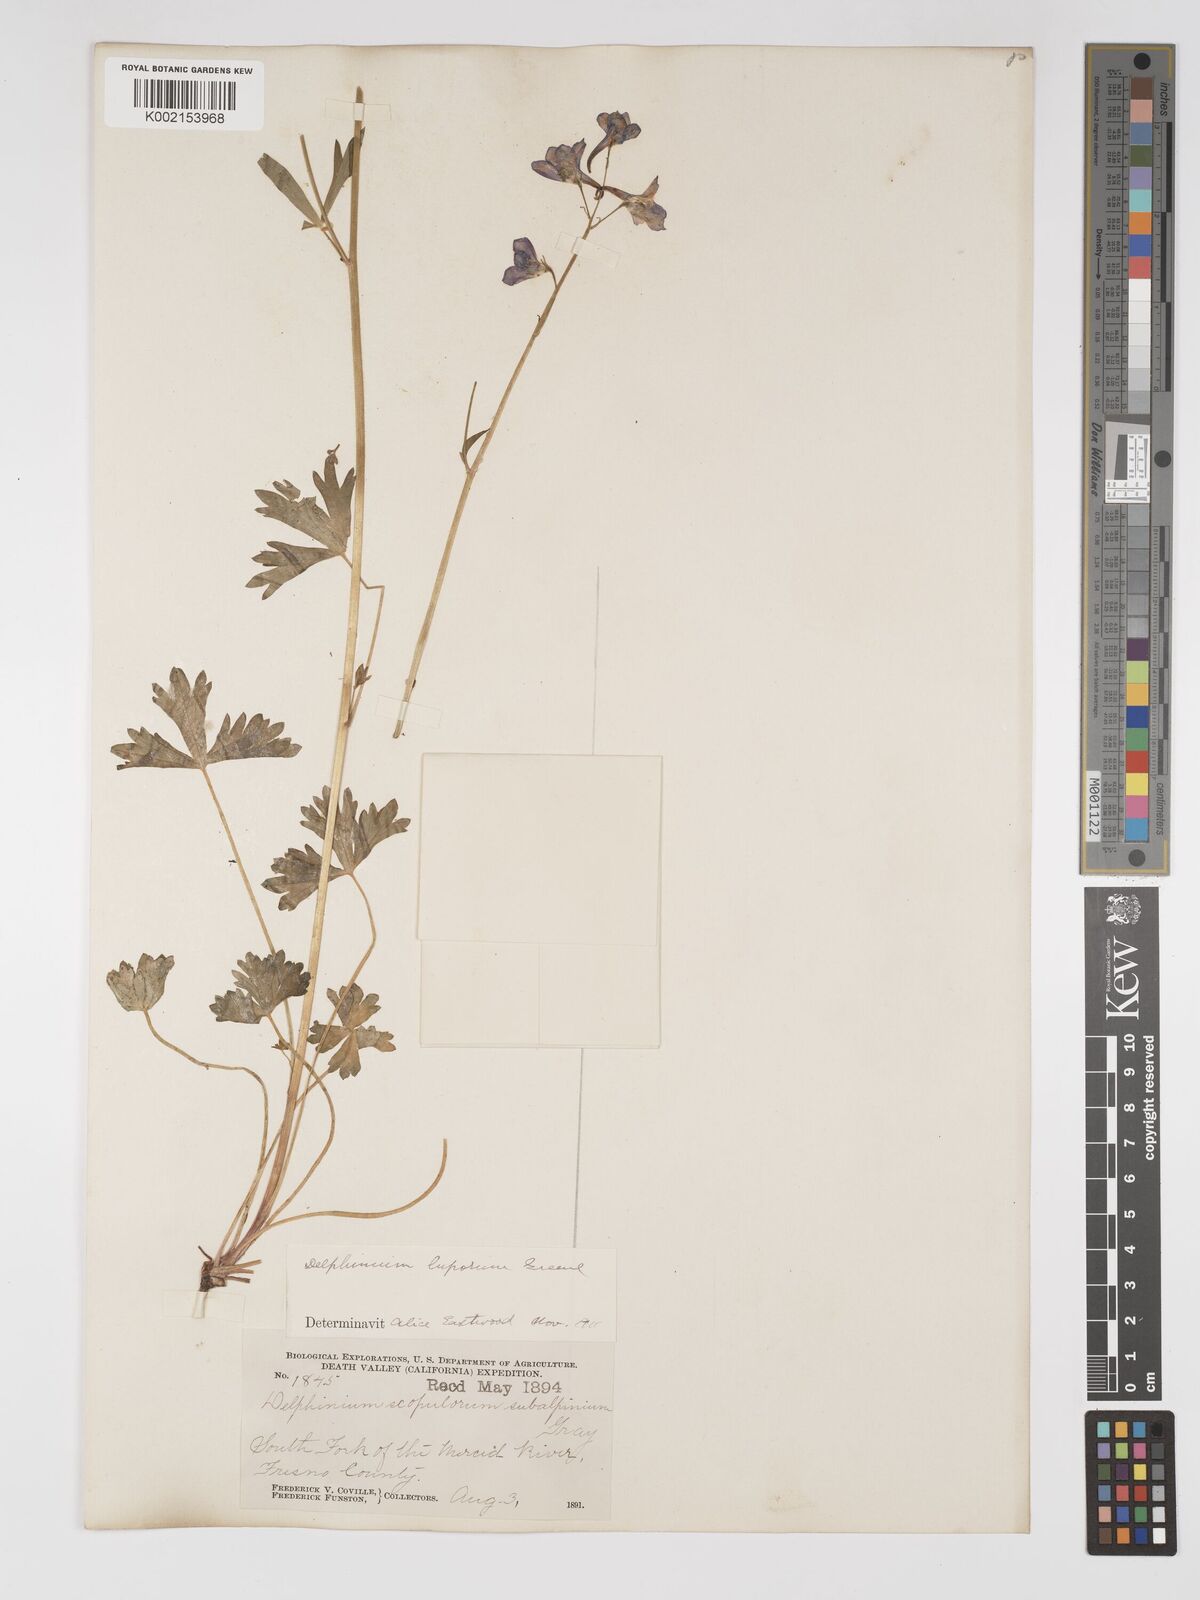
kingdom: Plantae
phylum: Tracheophyta
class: Magnoliopsida
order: Ranunculales
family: Ranunculaceae
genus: Delphinium
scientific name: Delphinium polycladon
